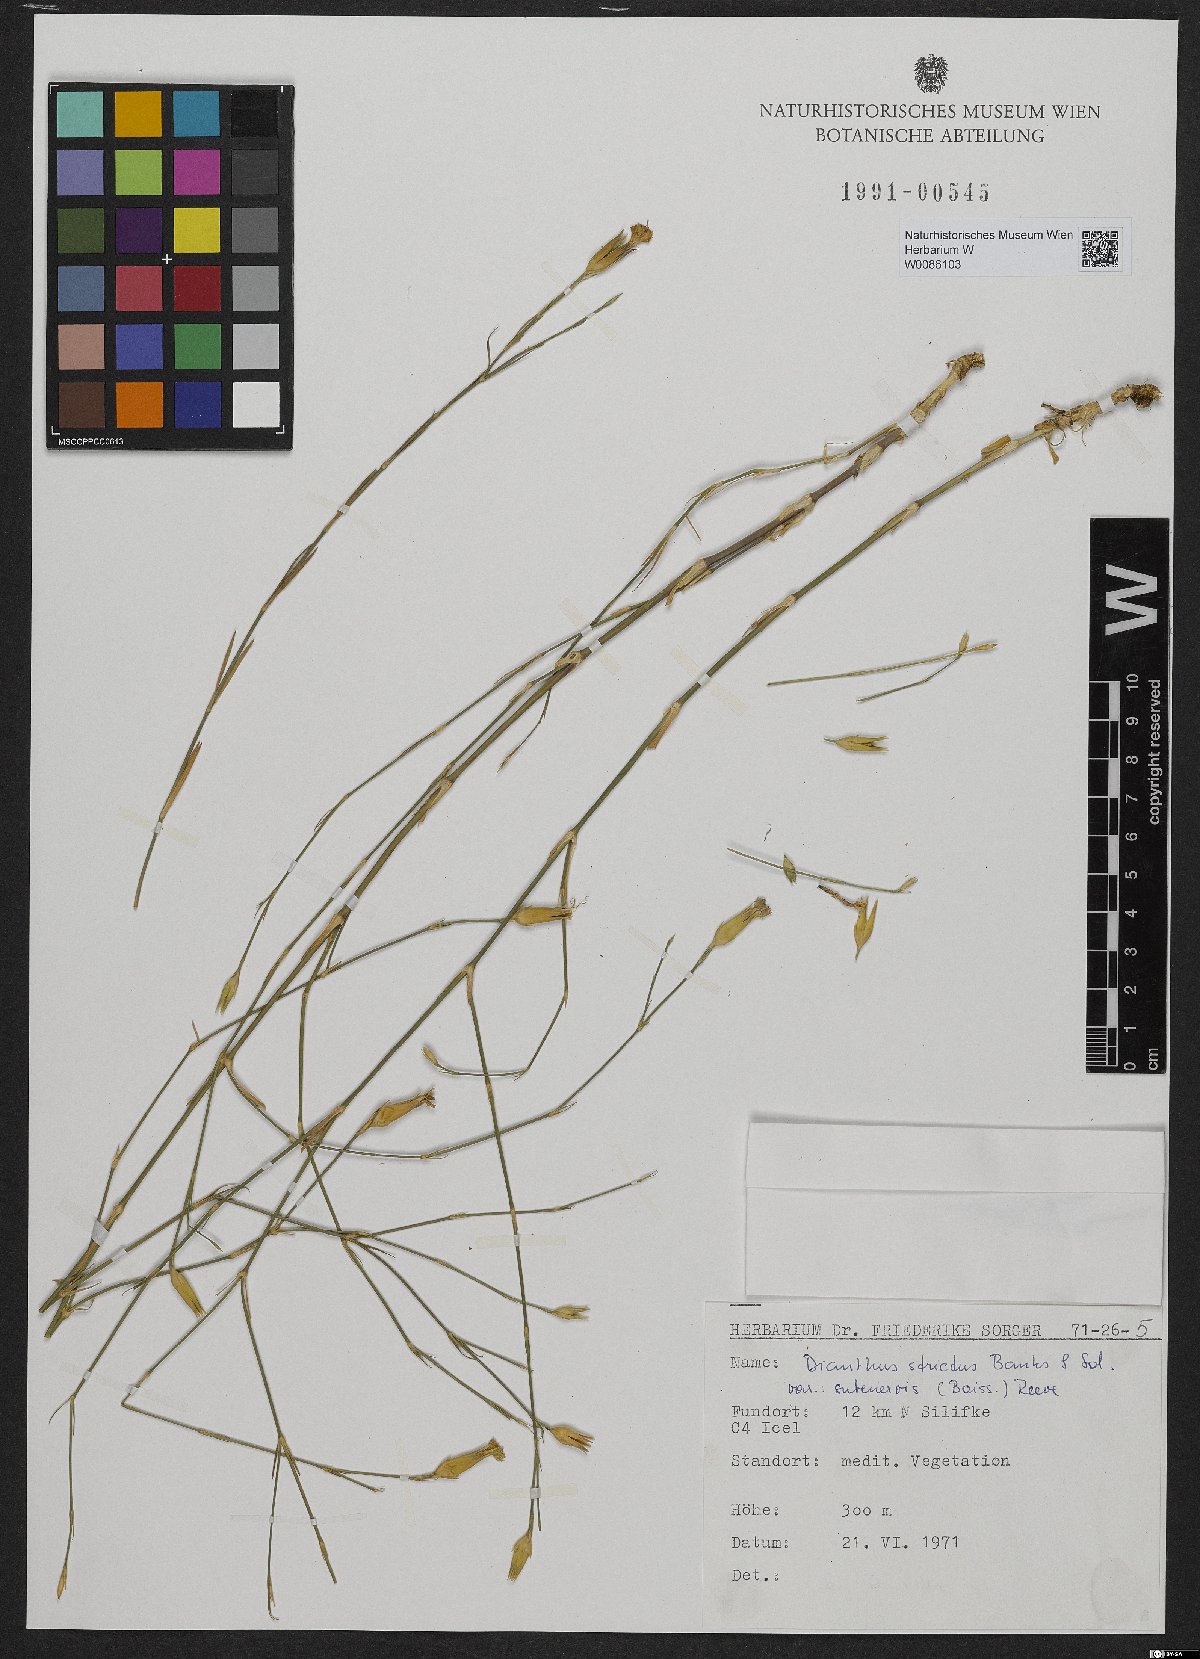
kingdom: Plantae
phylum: Tracheophyta
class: Magnoliopsida
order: Caryophyllales
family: Caryophyllaceae
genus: Dianthus
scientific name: Dianthus strictus
